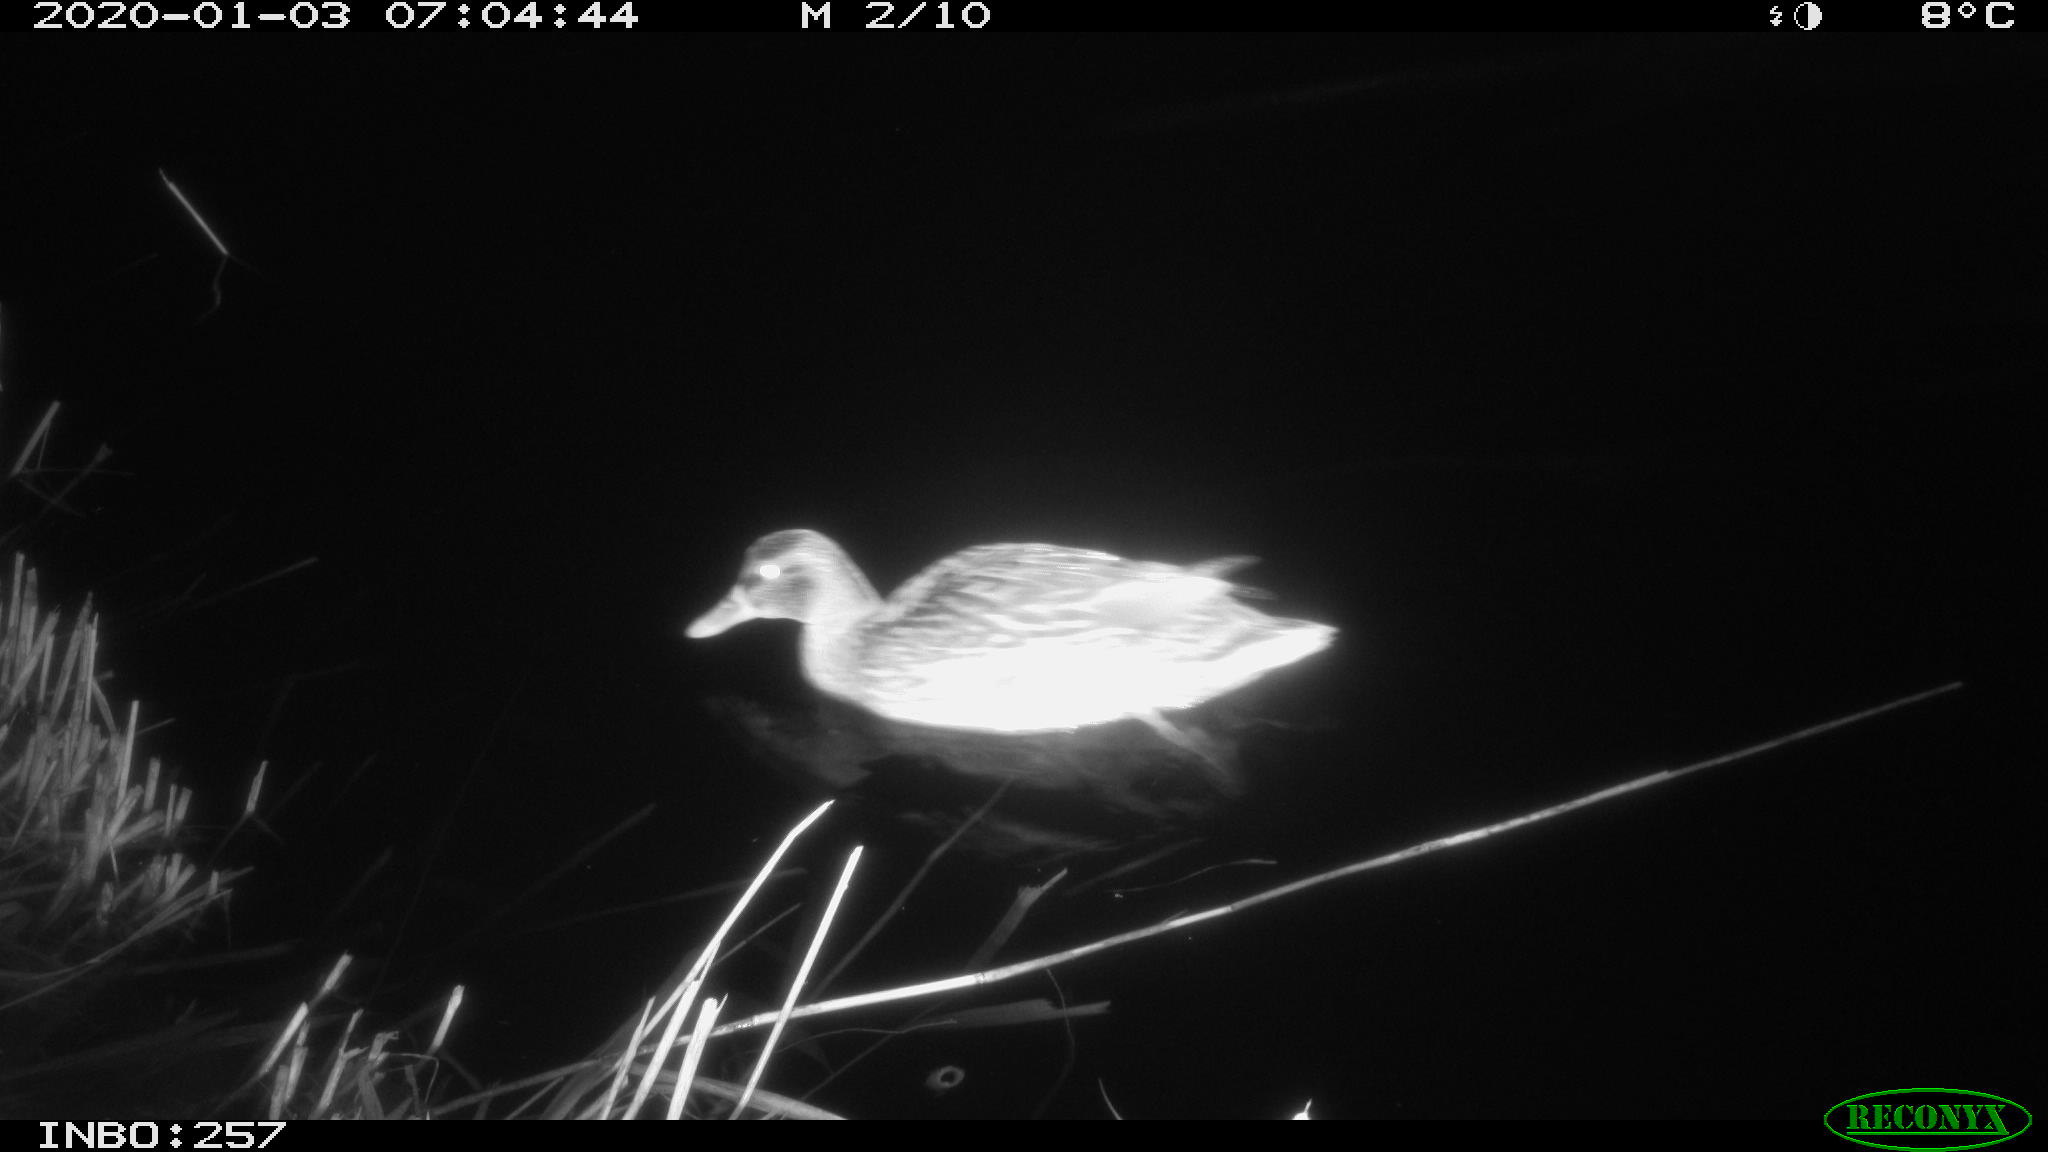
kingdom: Animalia
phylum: Chordata
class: Aves
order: Anseriformes
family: Anatidae
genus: Anas
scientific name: Anas platyrhynchos
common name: Mallard
